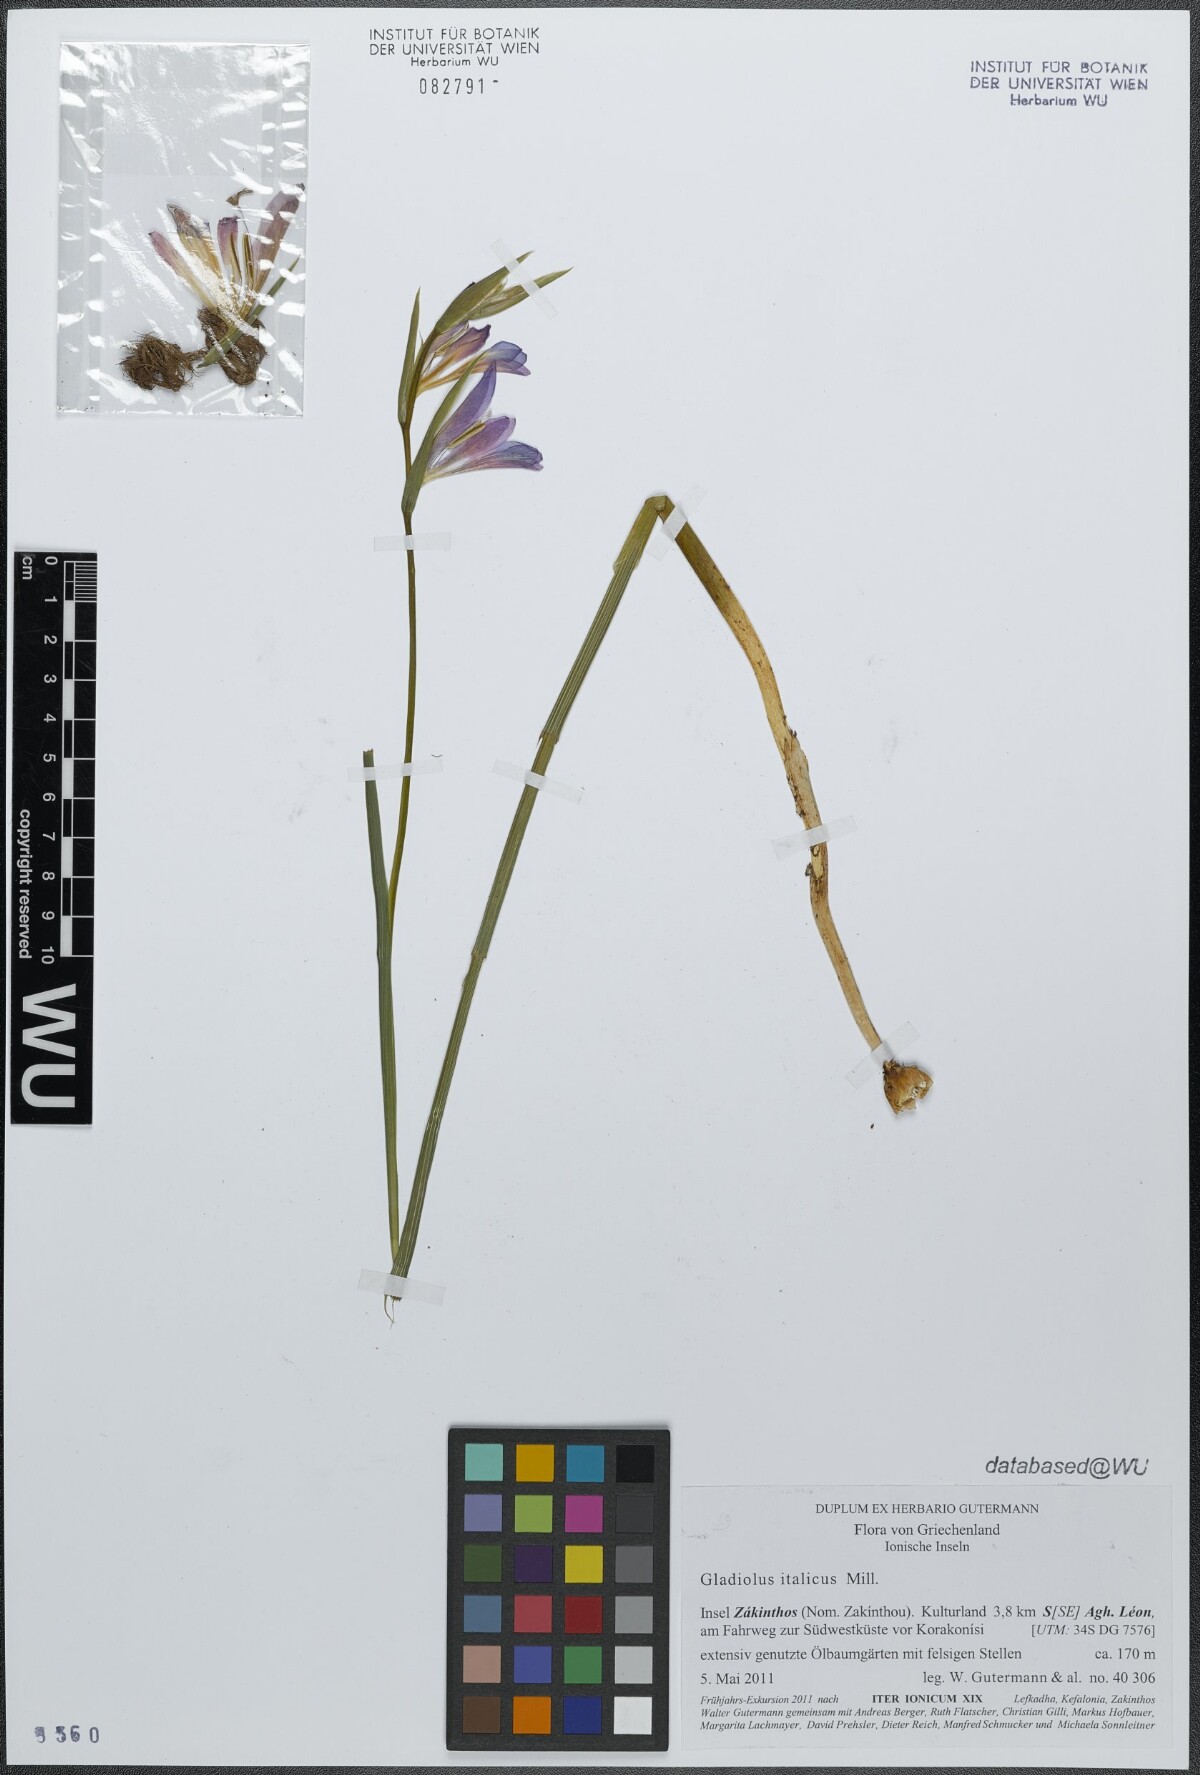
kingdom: Plantae
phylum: Tracheophyta
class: Liliopsida
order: Asparagales
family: Iridaceae
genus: Gladiolus
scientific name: Gladiolus italicus
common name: Field gladiolus
